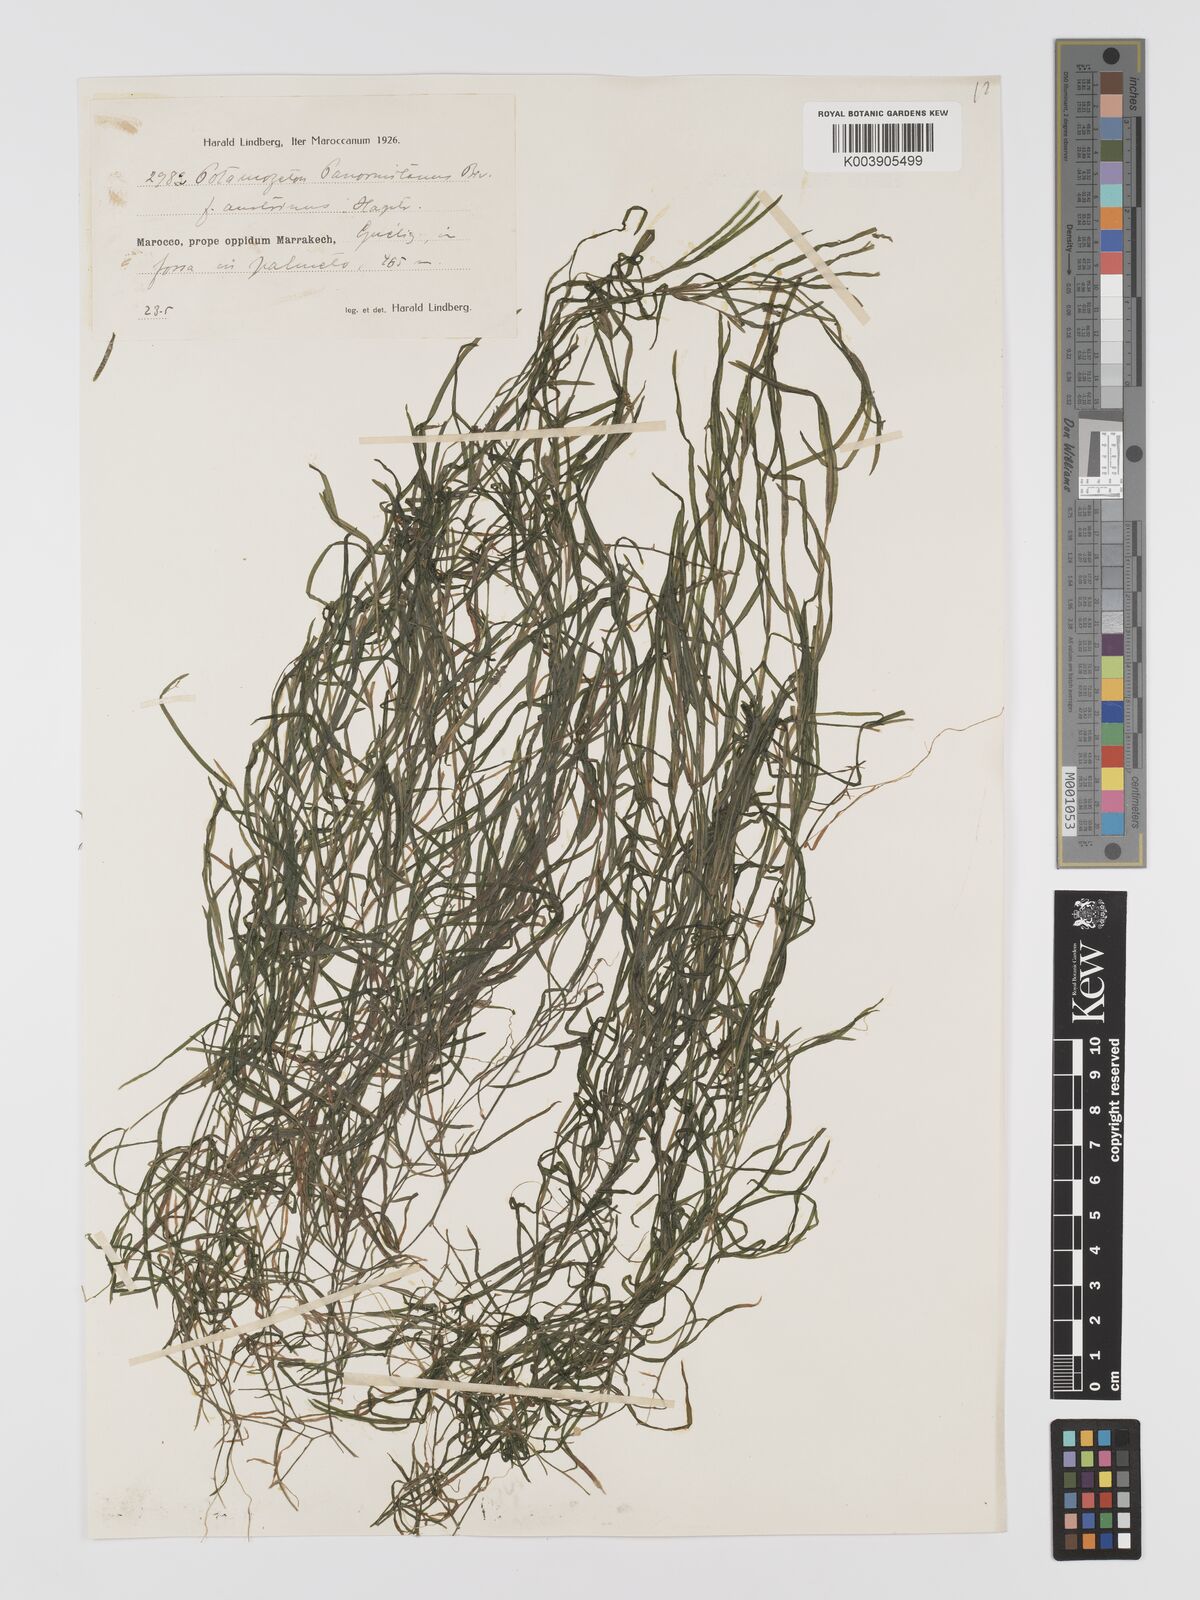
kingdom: Plantae
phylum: Tracheophyta
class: Liliopsida
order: Alismatales
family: Potamogetonaceae
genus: Potamogeton
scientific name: Potamogeton pusillus
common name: Lesser pondweed
